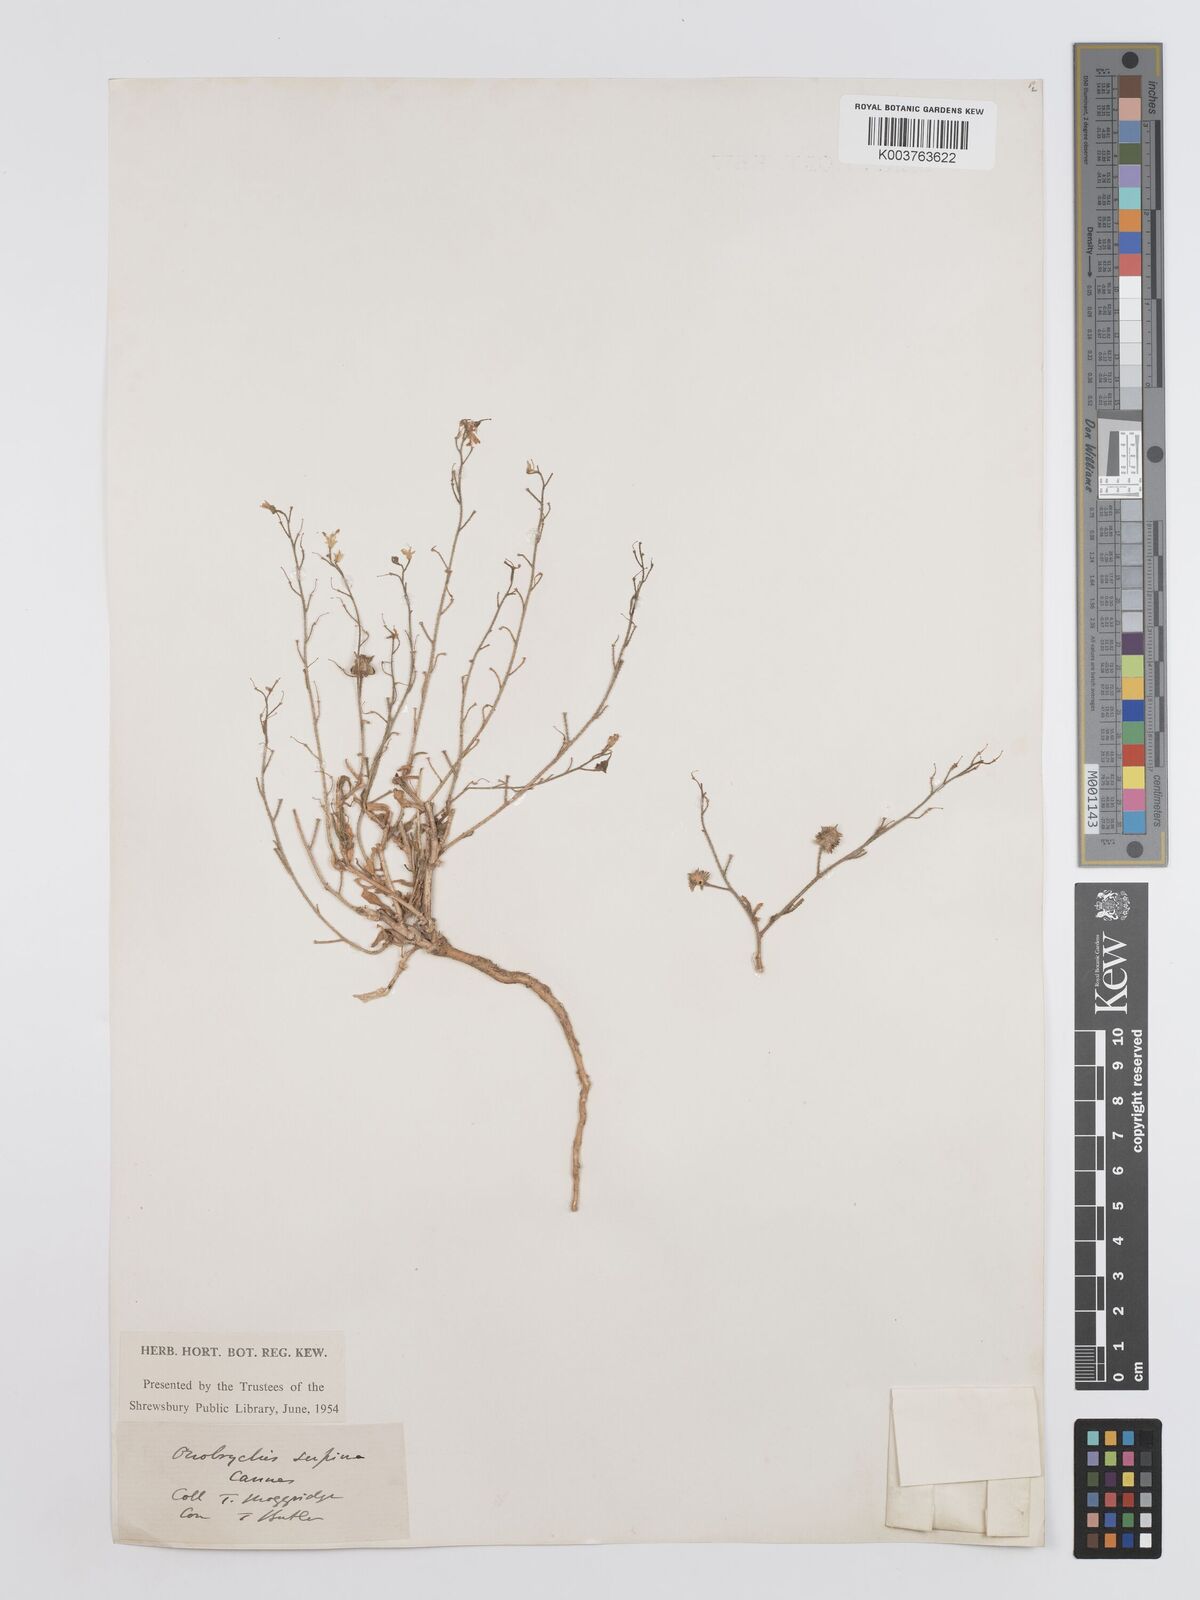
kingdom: Plantae
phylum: Tracheophyta
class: Magnoliopsida
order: Fabales
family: Fabaceae
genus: Onobrychis
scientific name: Onobrychis supina
